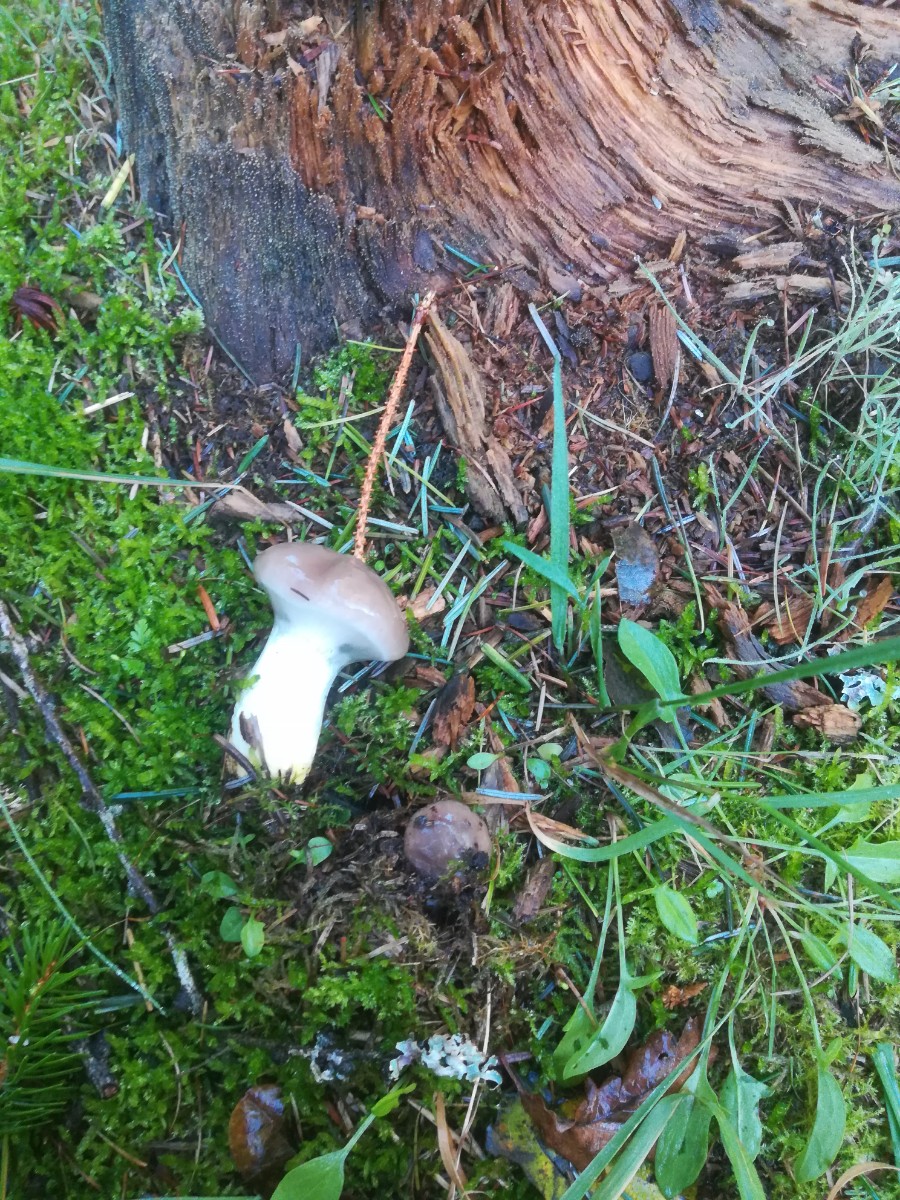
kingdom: Fungi
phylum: Basidiomycota
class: Agaricomycetes
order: Boletales
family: Gomphidiaceae
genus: Gomphidius
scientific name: Gomphidius glutinosus
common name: grå slimslør
